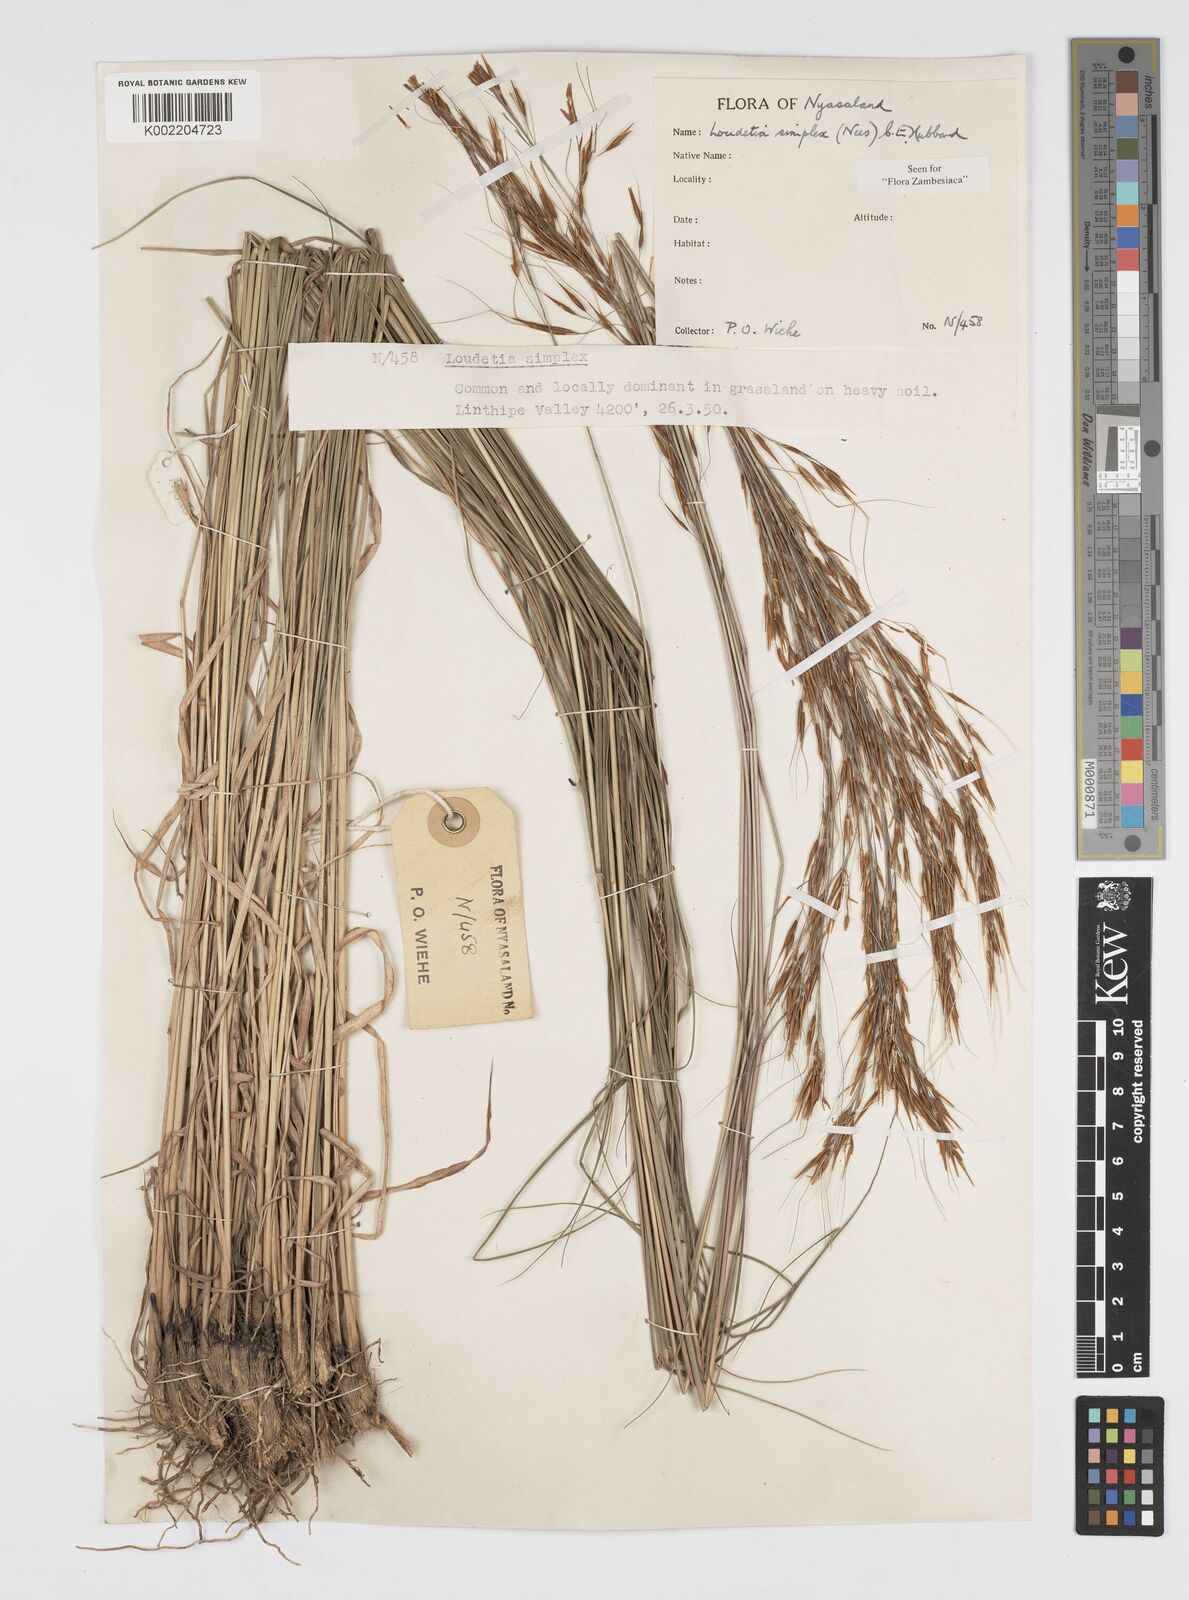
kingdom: Plantae
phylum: Tracheophyta
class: Liliopsida
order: Poales
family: Poaceae
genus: Loudetia
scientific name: Loudetia simplex
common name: Common russet grass
